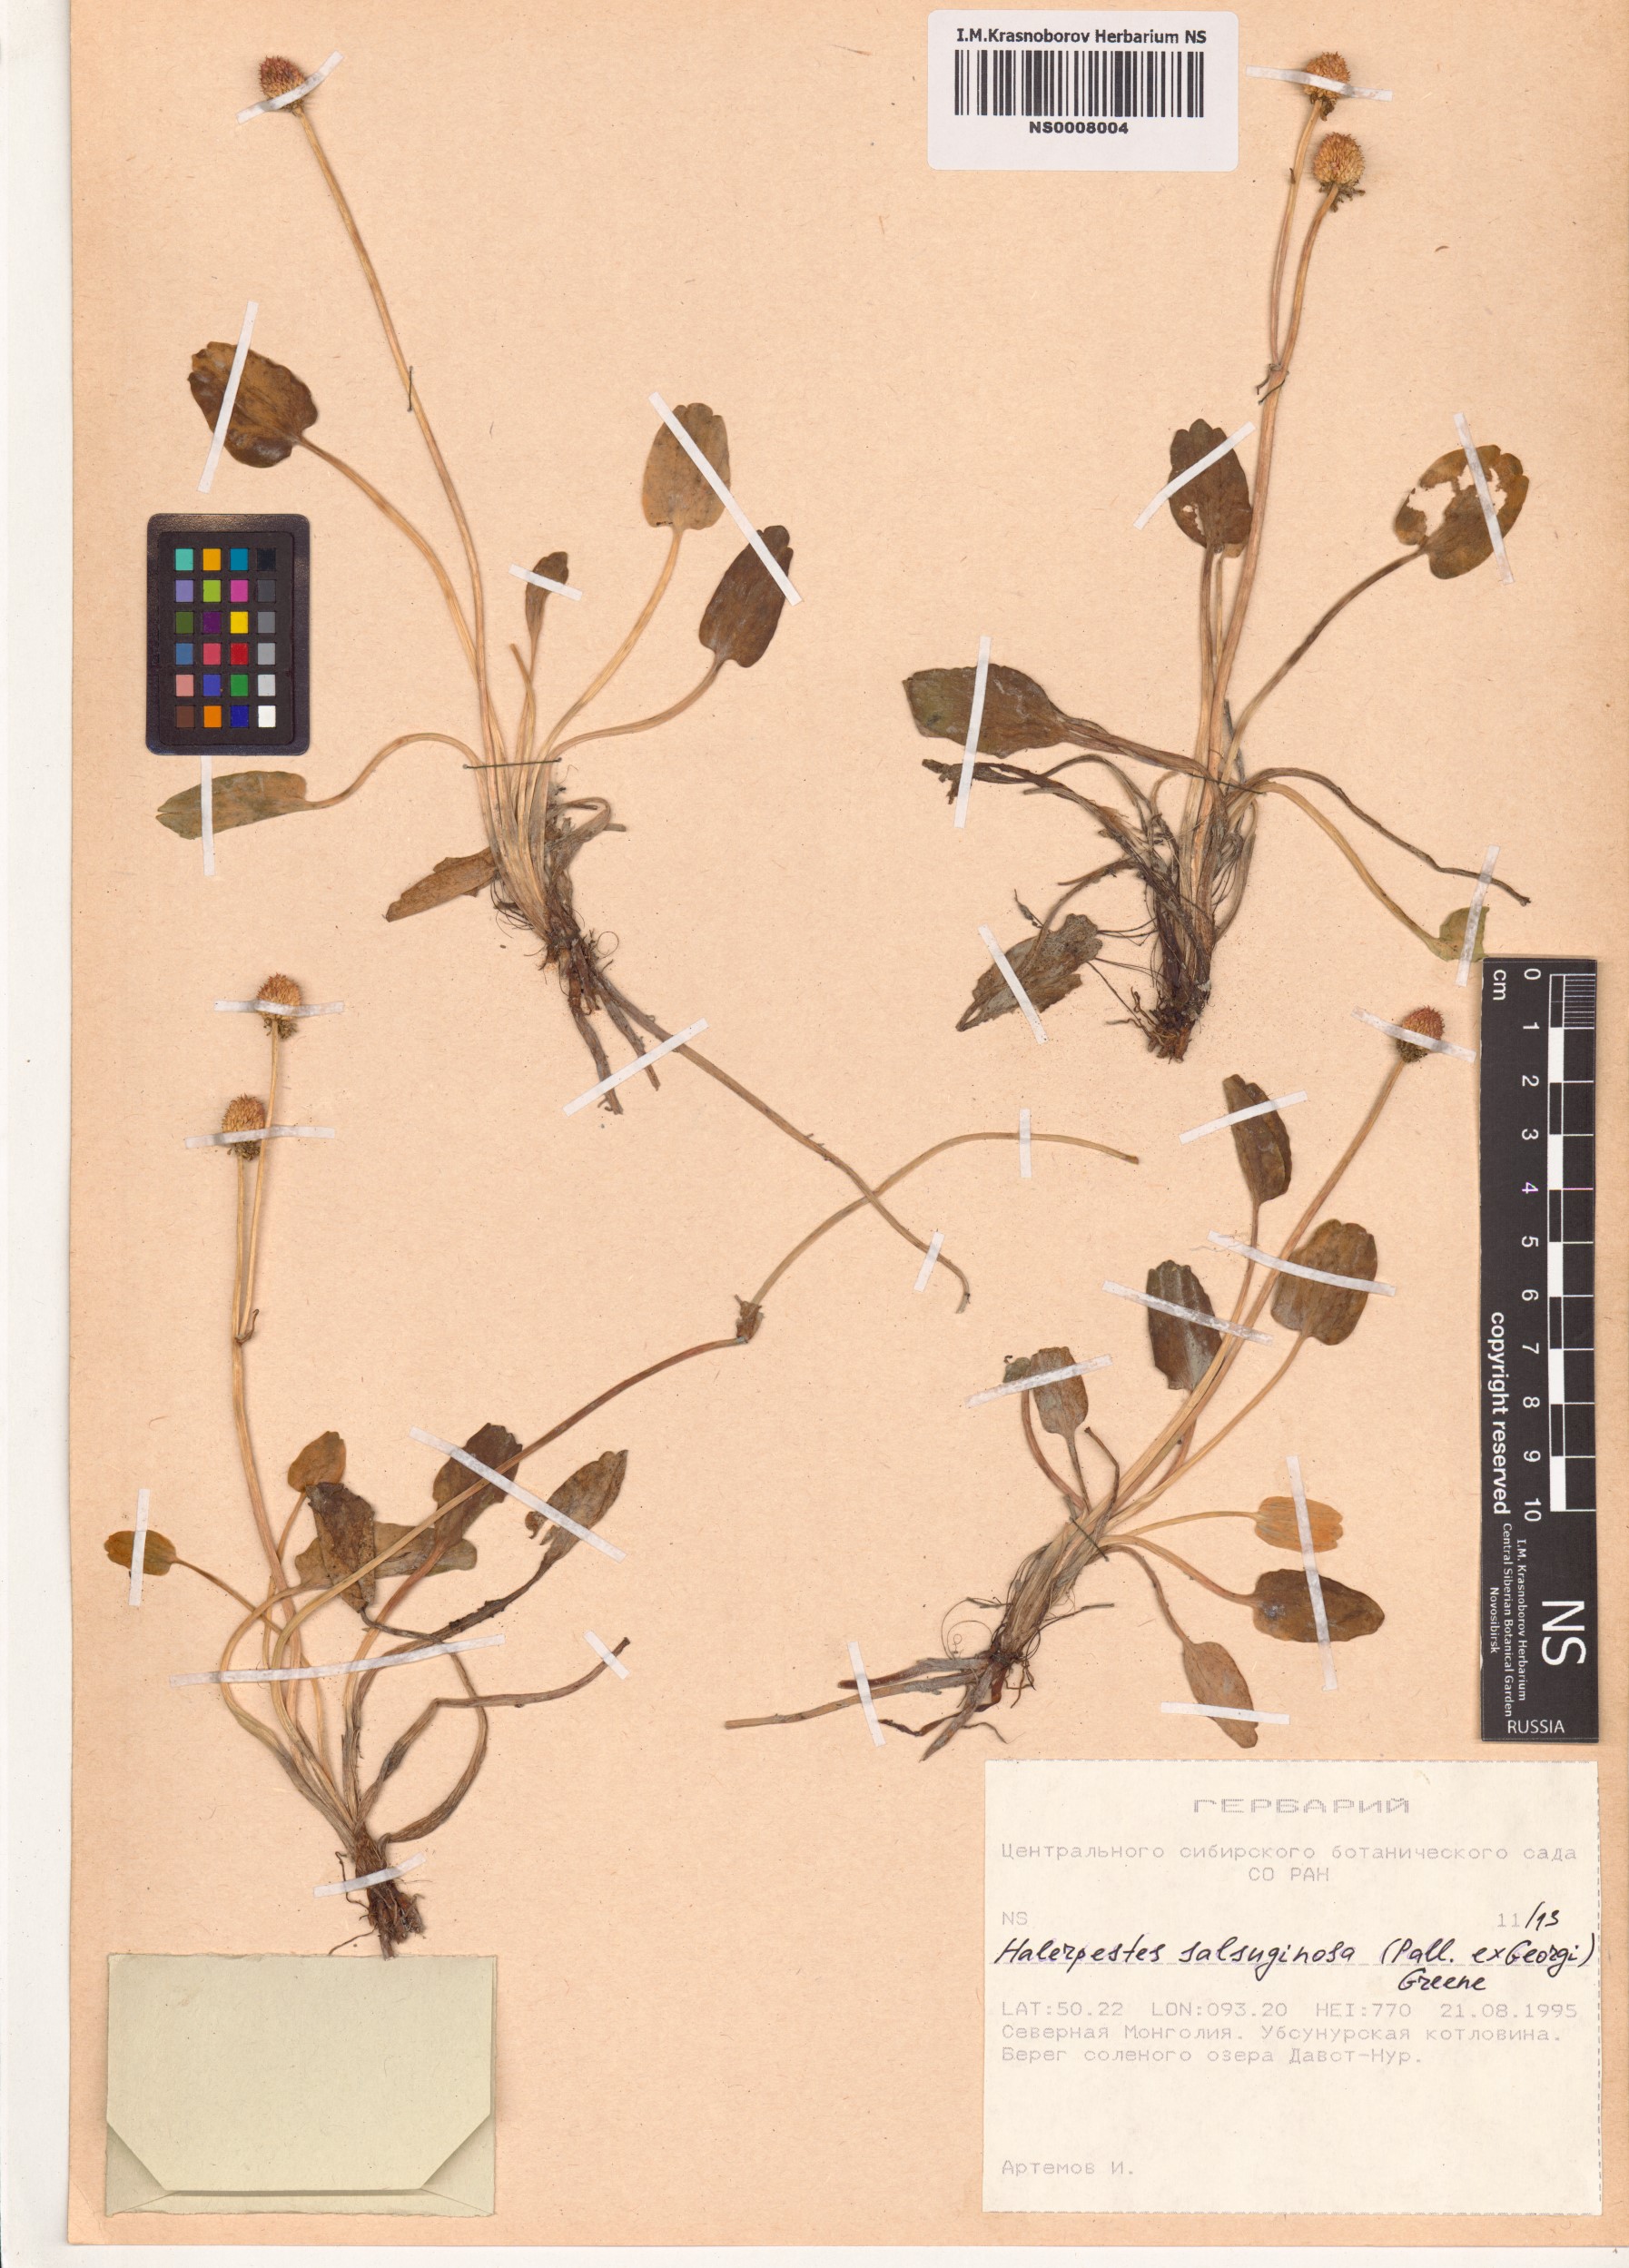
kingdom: Plantae
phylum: Tracheophyta
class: Magnoliopsida
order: Ranunculales
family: Ranunculaceae
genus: Halerpestes
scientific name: Halerpestes sarmentosus
